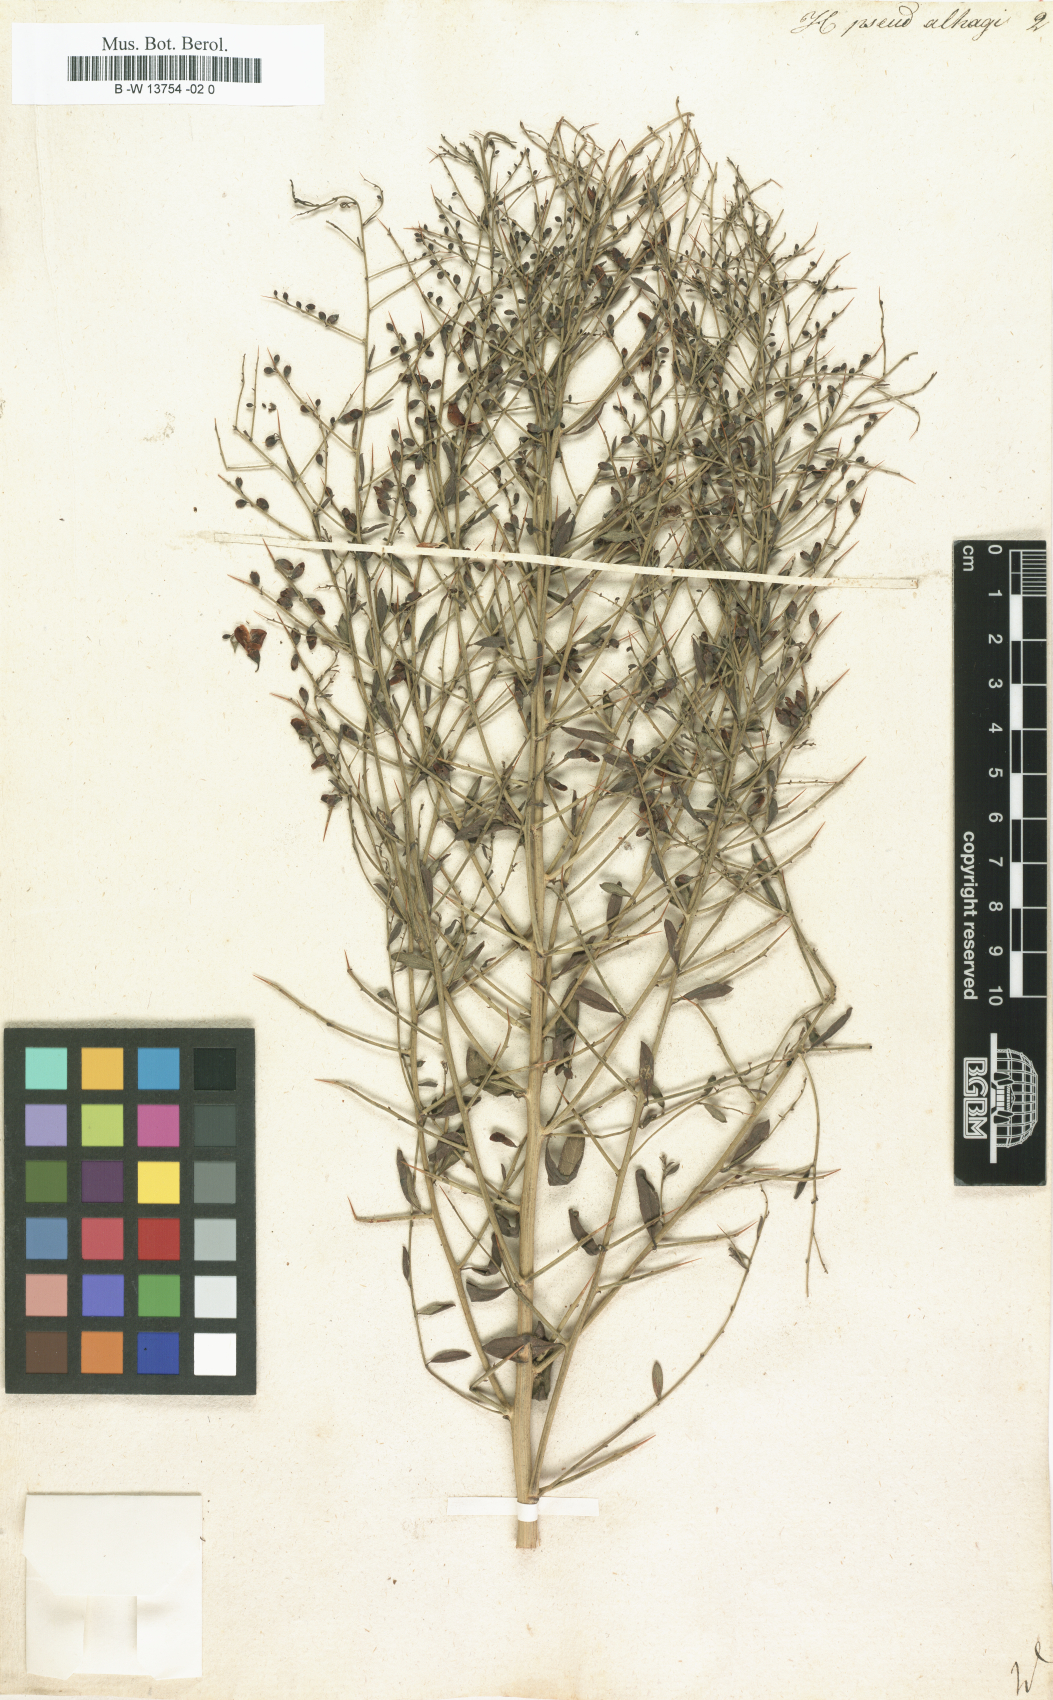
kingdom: Plantae
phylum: Tracheophyta
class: Magnoliopsida
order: Fabales
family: Fabaceae
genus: Alhagi
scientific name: Alhagi pseudalhagi
